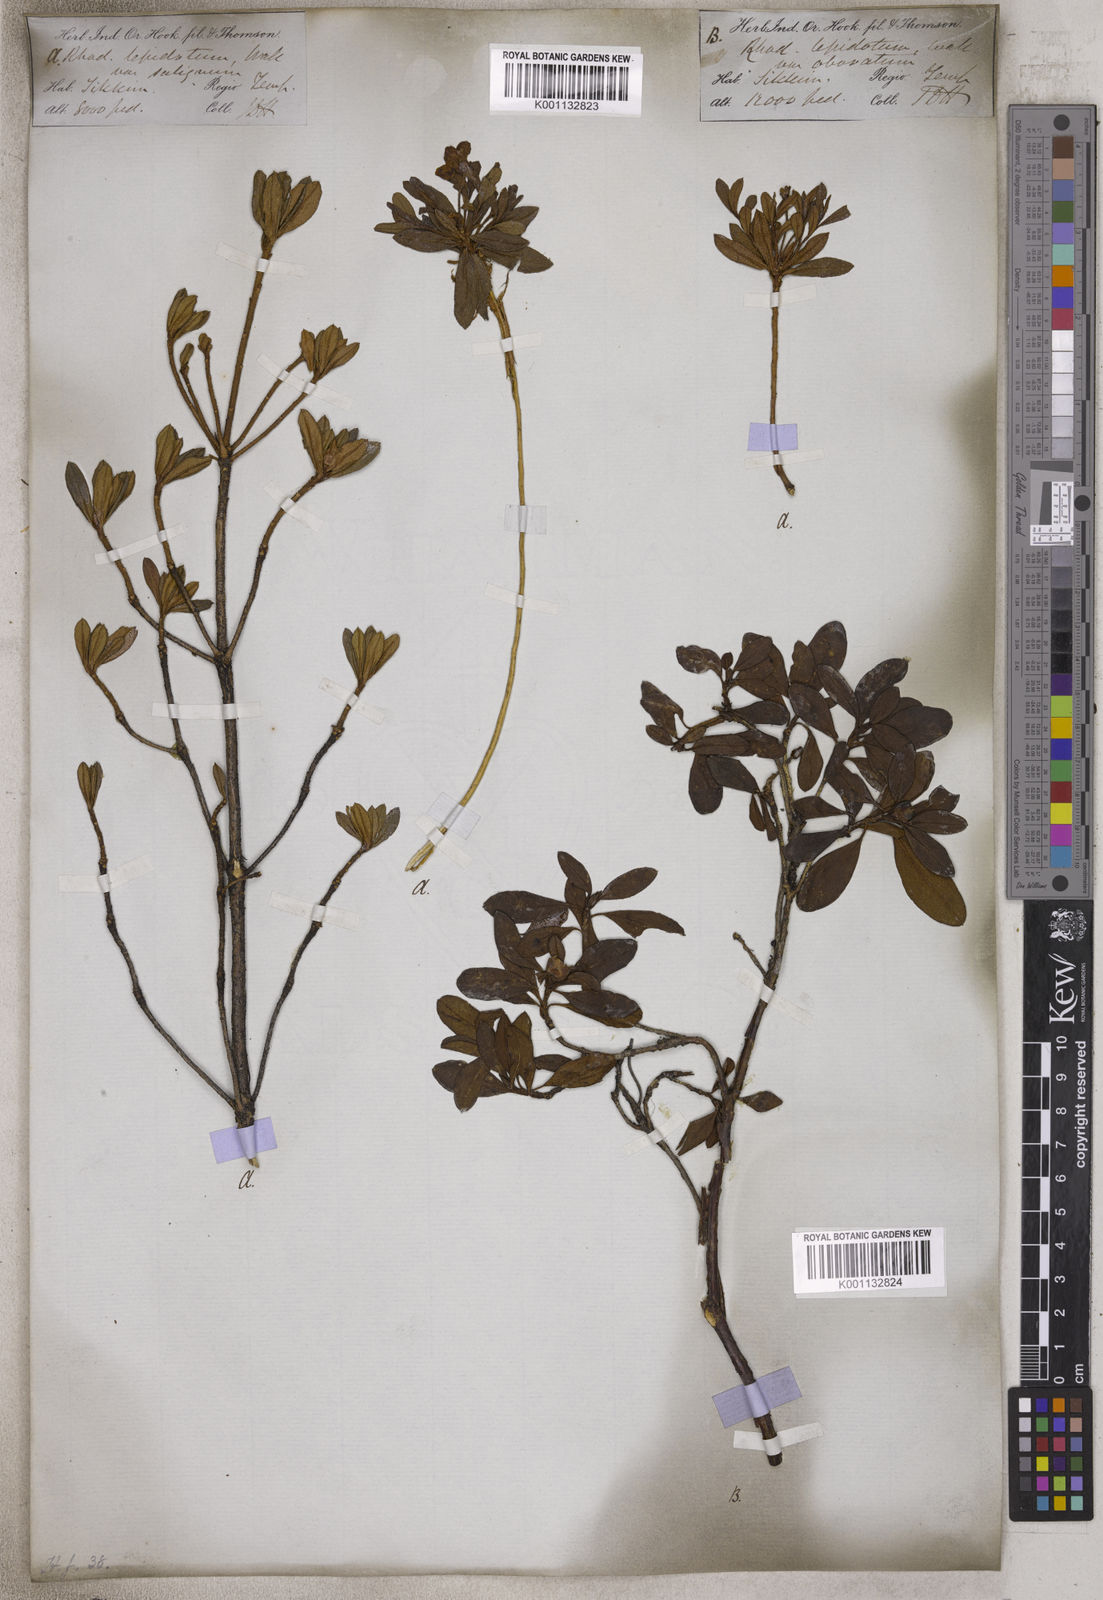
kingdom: Plantae
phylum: Tracheophyta
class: Magnoliopsida
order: Ericales
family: Ericaceae
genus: Rhododendron
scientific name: Rhododendron lepidotum
